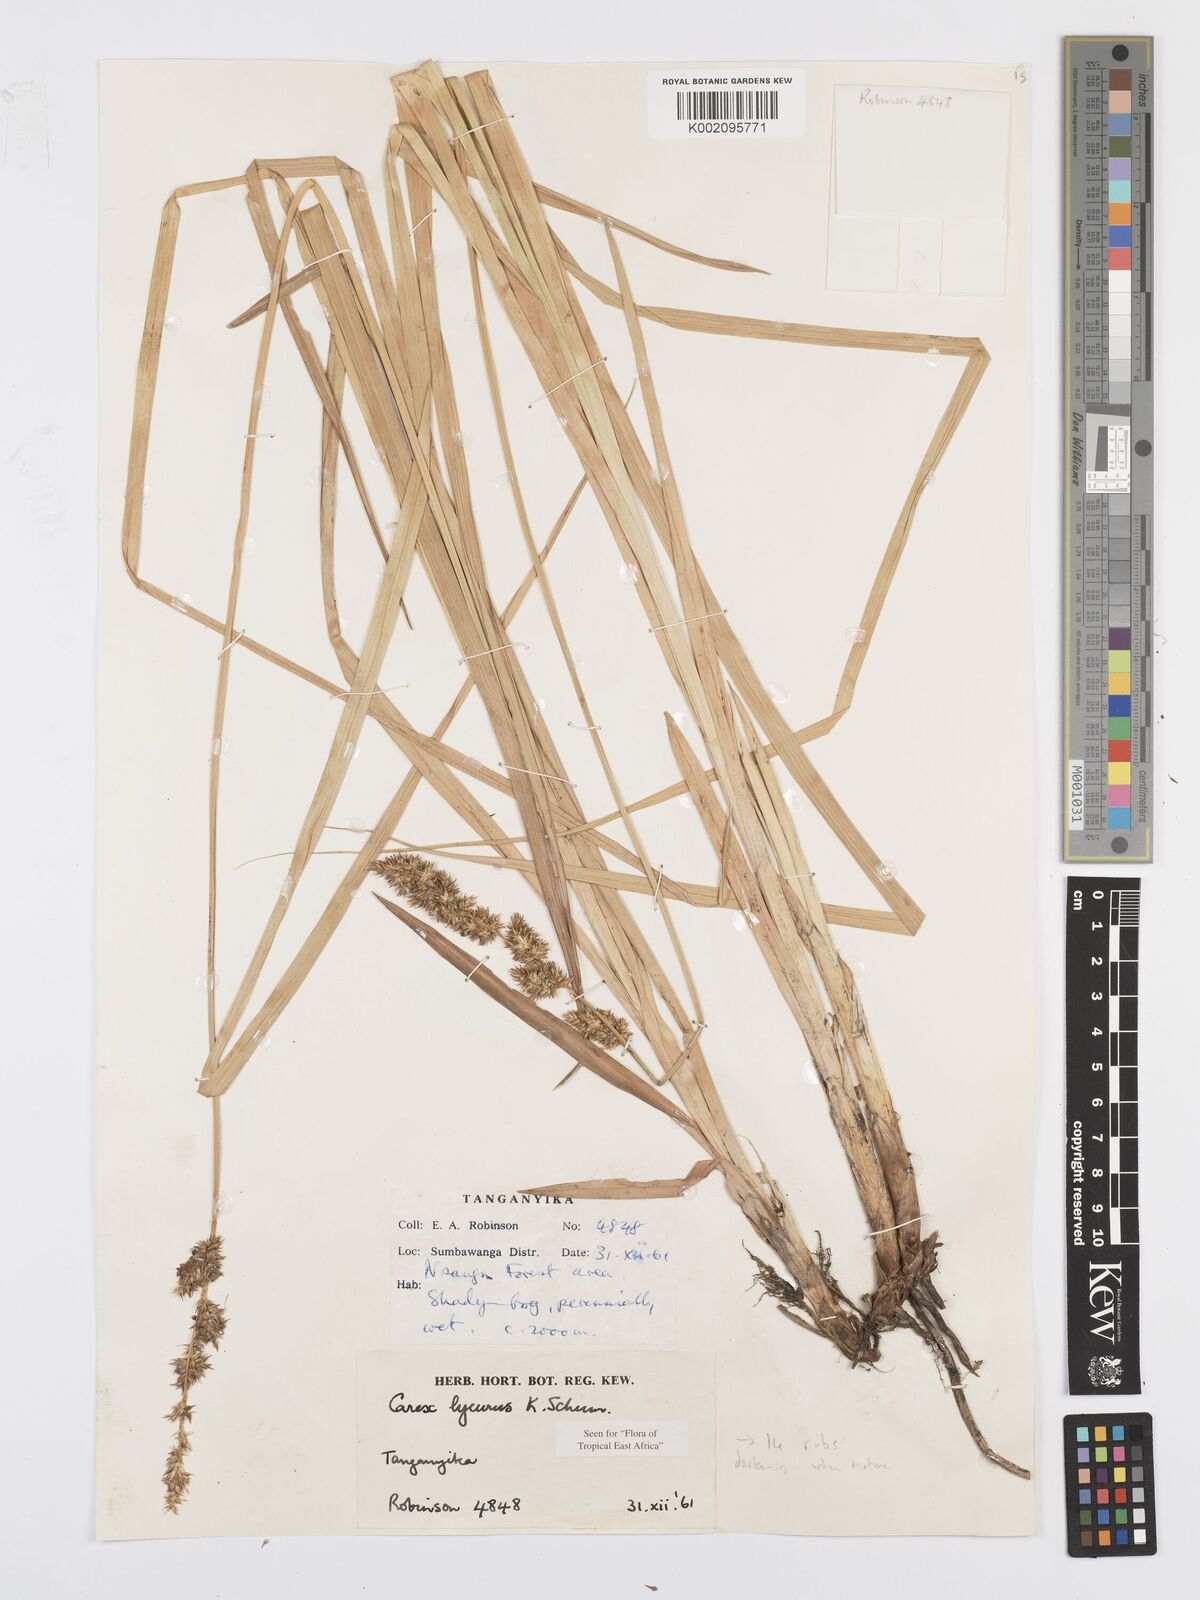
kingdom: Plantae
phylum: Tracheophyta
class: Liliopsida
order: Poales
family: Cyperaceae
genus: Carex
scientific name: Carex lycurus
